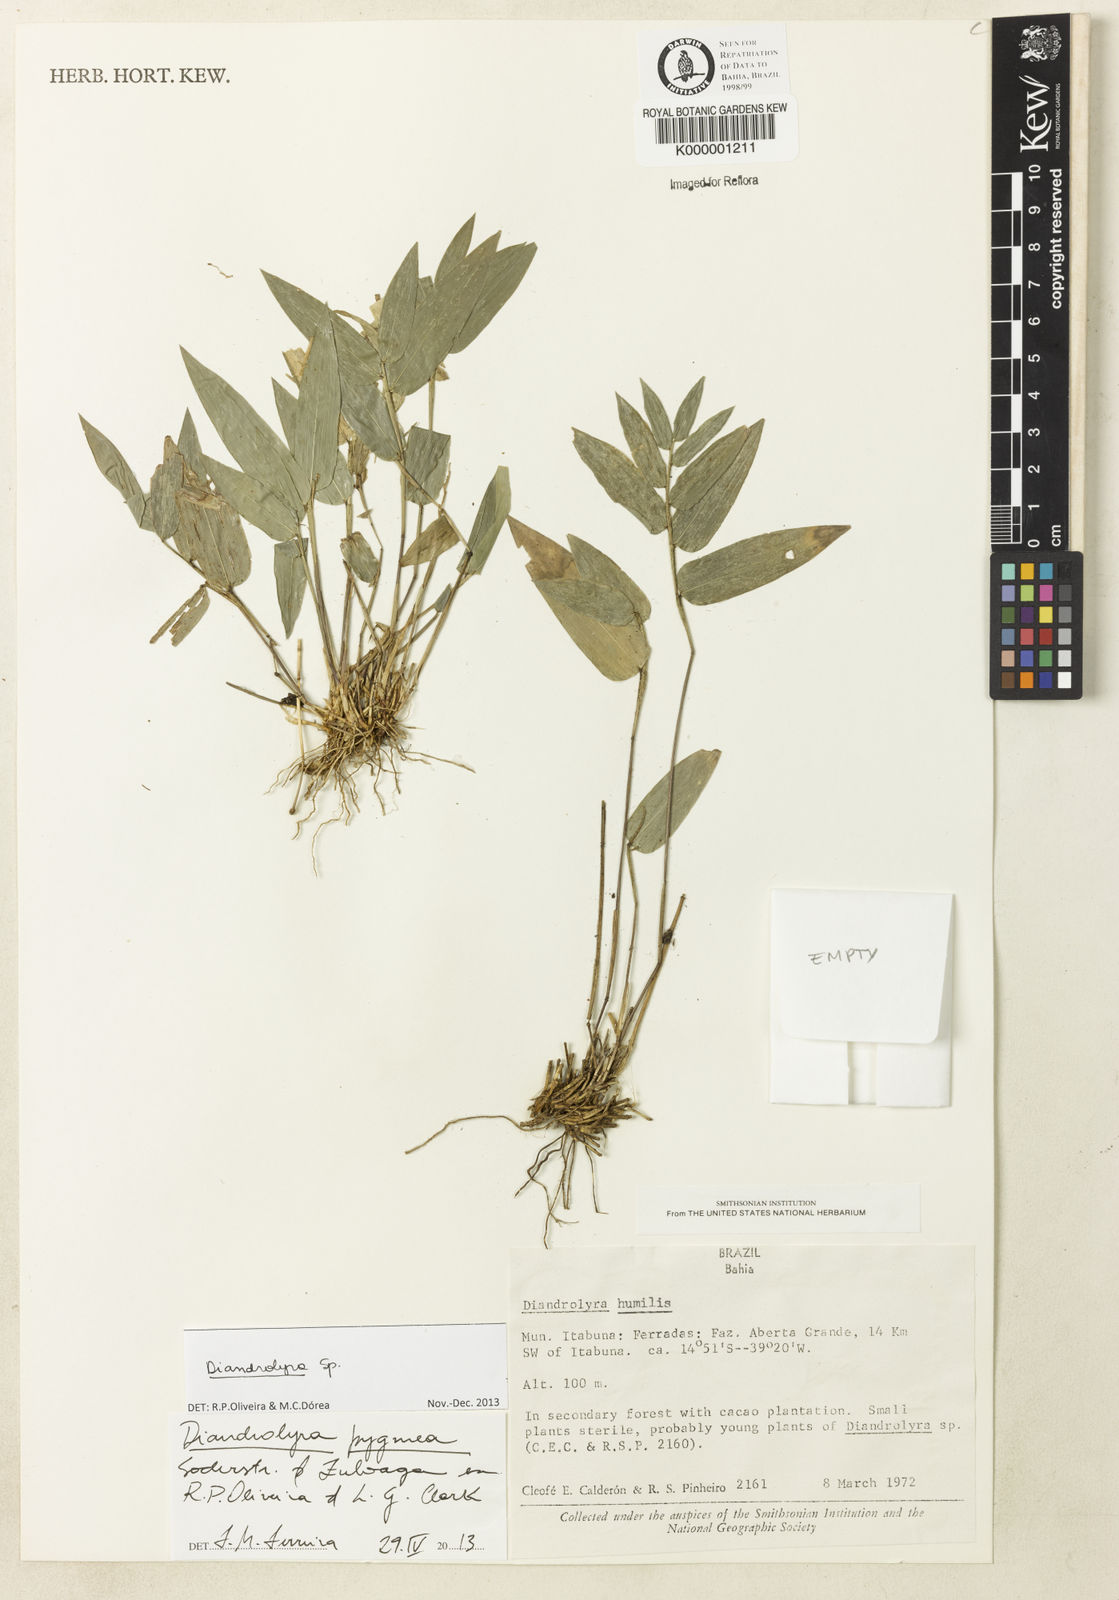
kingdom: Plantae
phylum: Tracheophyta
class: Liliopsida
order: Poales
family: Poaceae
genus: Diandrolyra
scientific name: Diandrolyra
